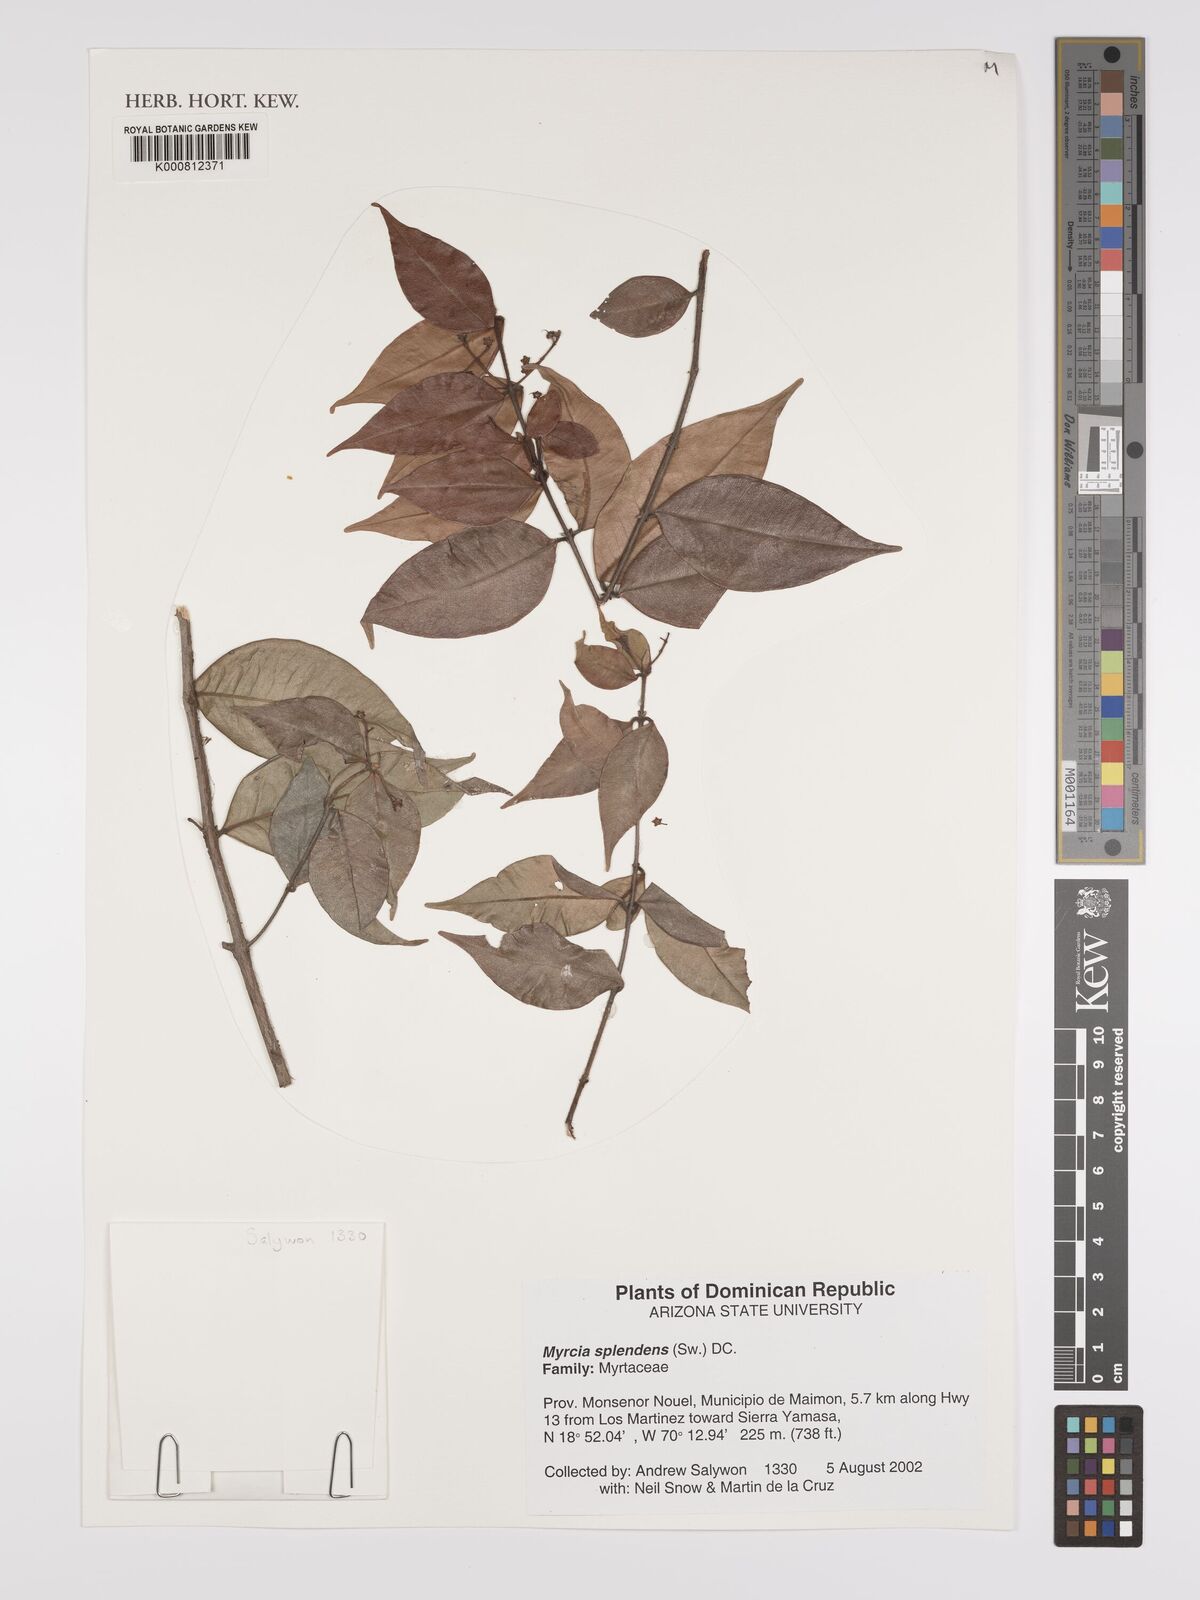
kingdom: Plantae
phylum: Tracheophyta
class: Magnoliopsida
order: Myrtales
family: Myrtaceae
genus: Myrcia
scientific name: Myrcia splendens
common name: Surinam cherry
